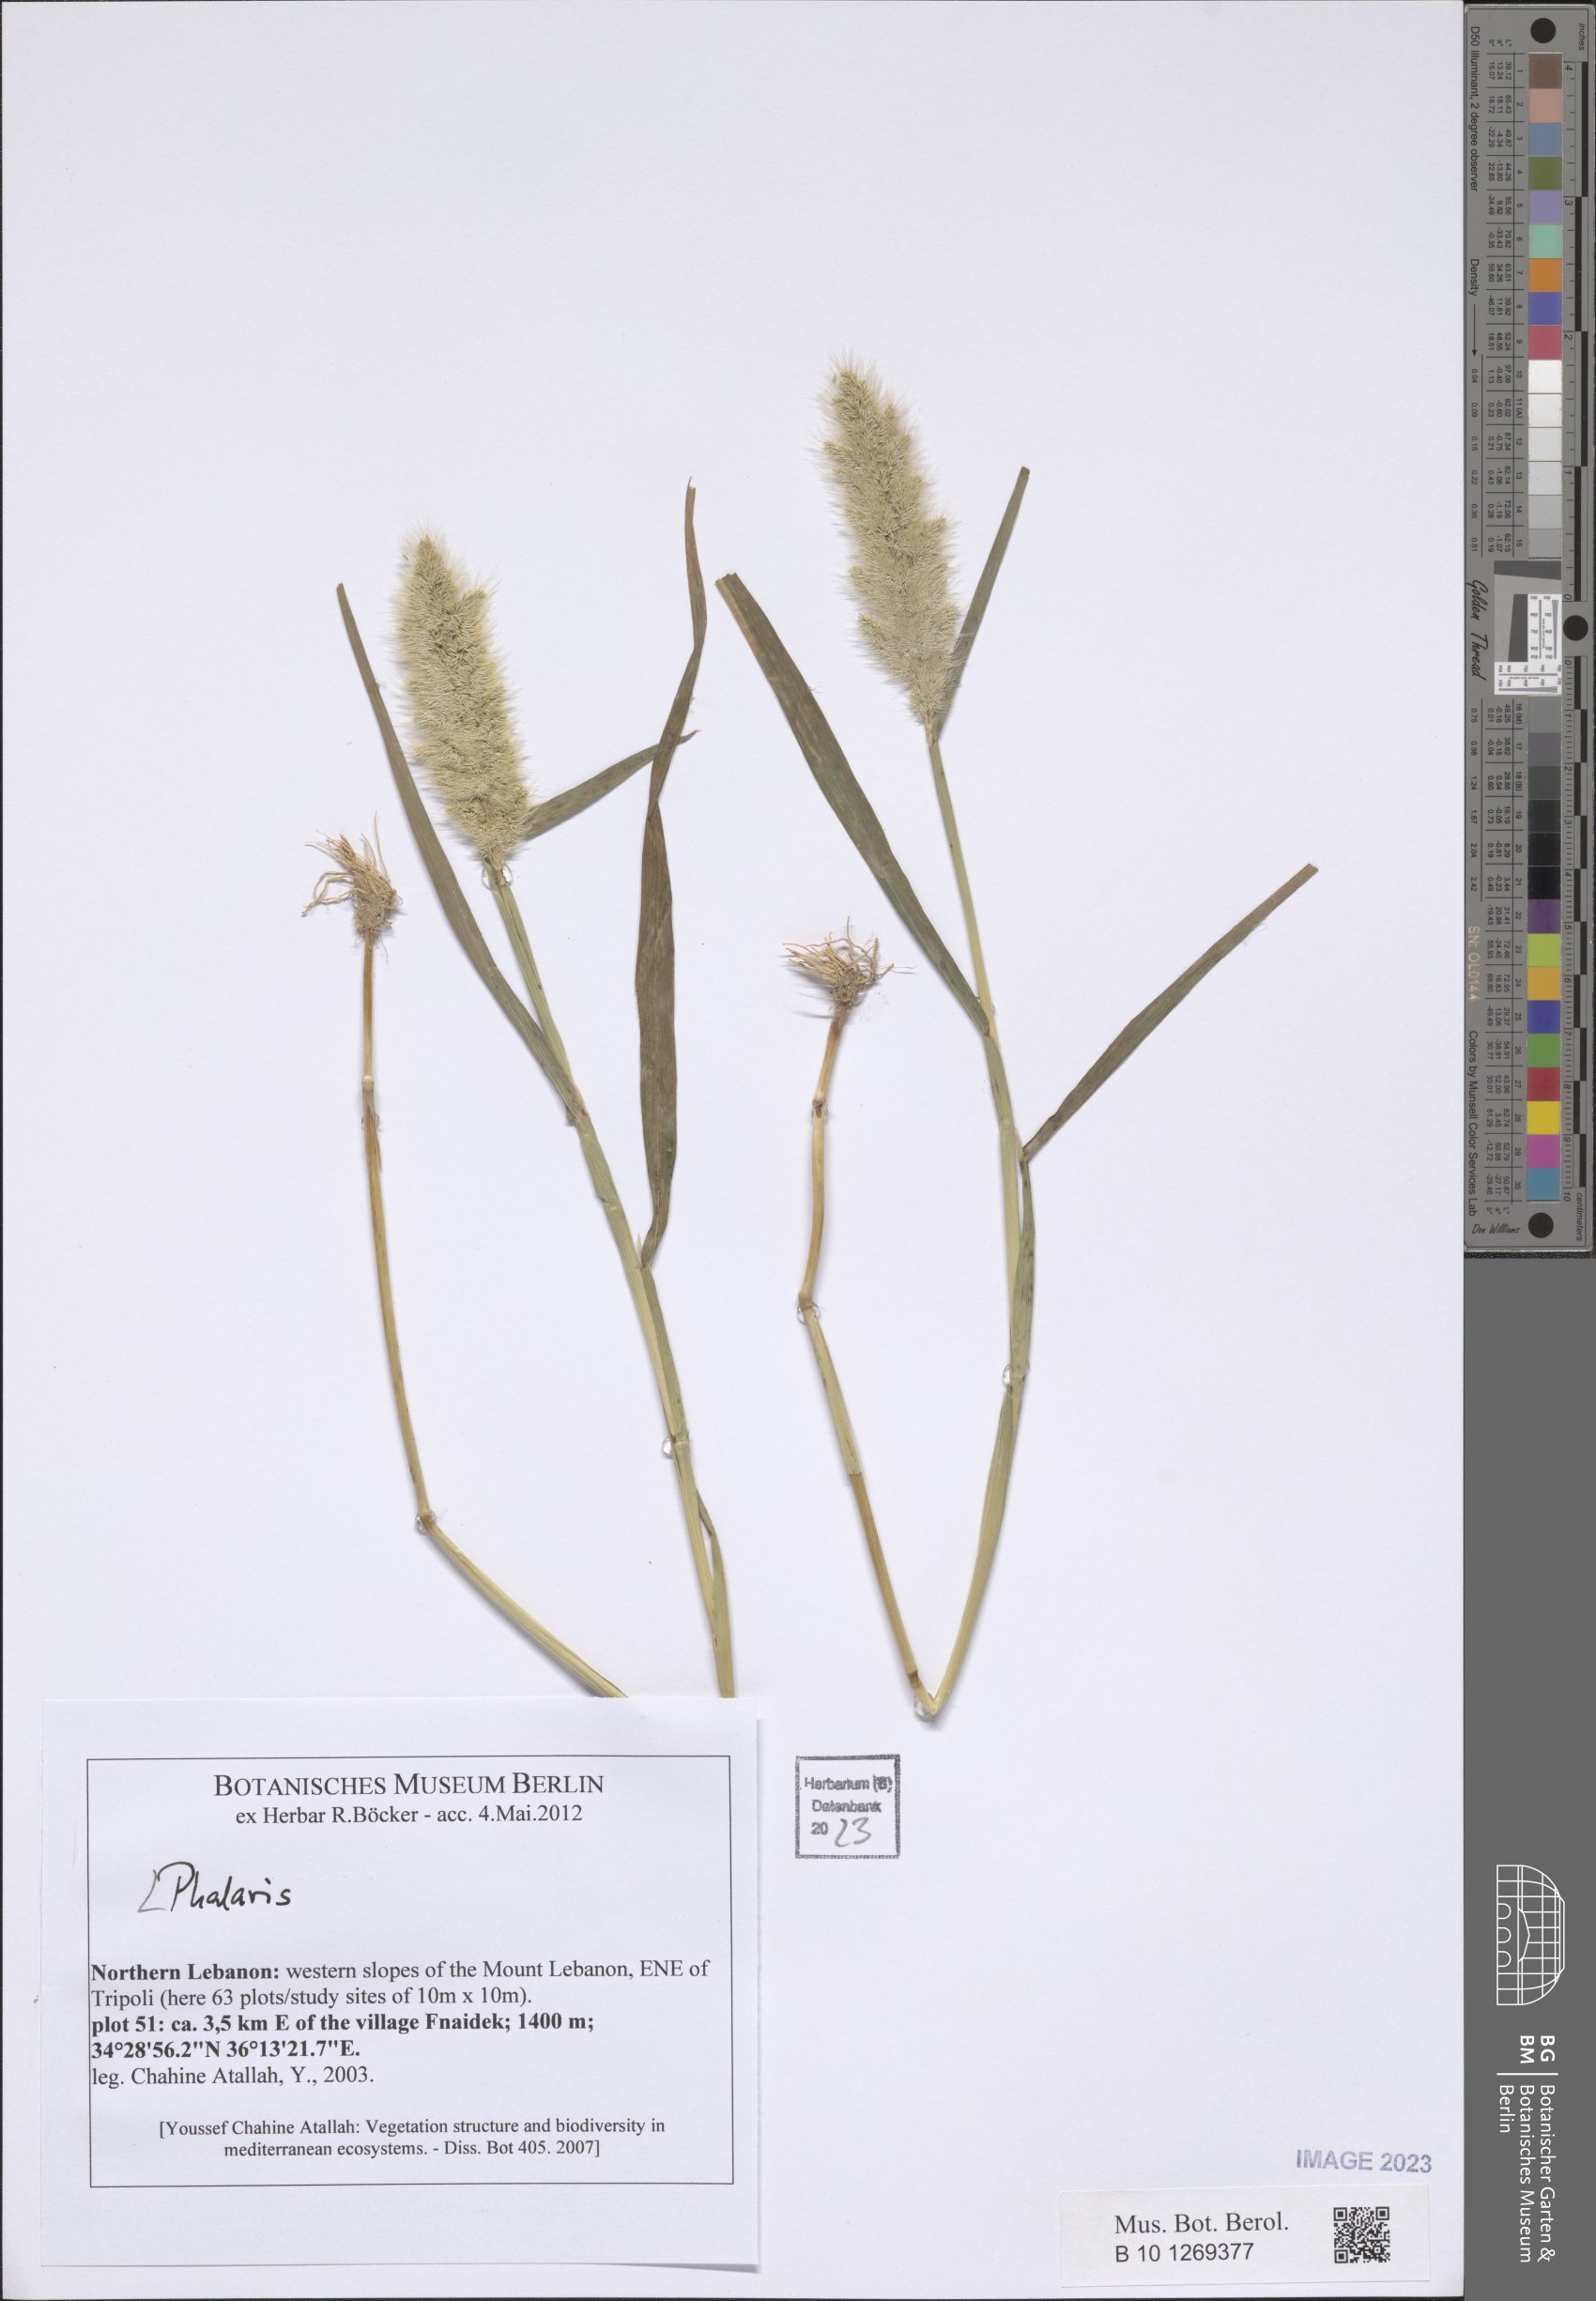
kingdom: Plantae
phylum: Tracheophyta
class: Liliopsida
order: Poales
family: Poaceae
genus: Phalaris
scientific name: Phalaris
